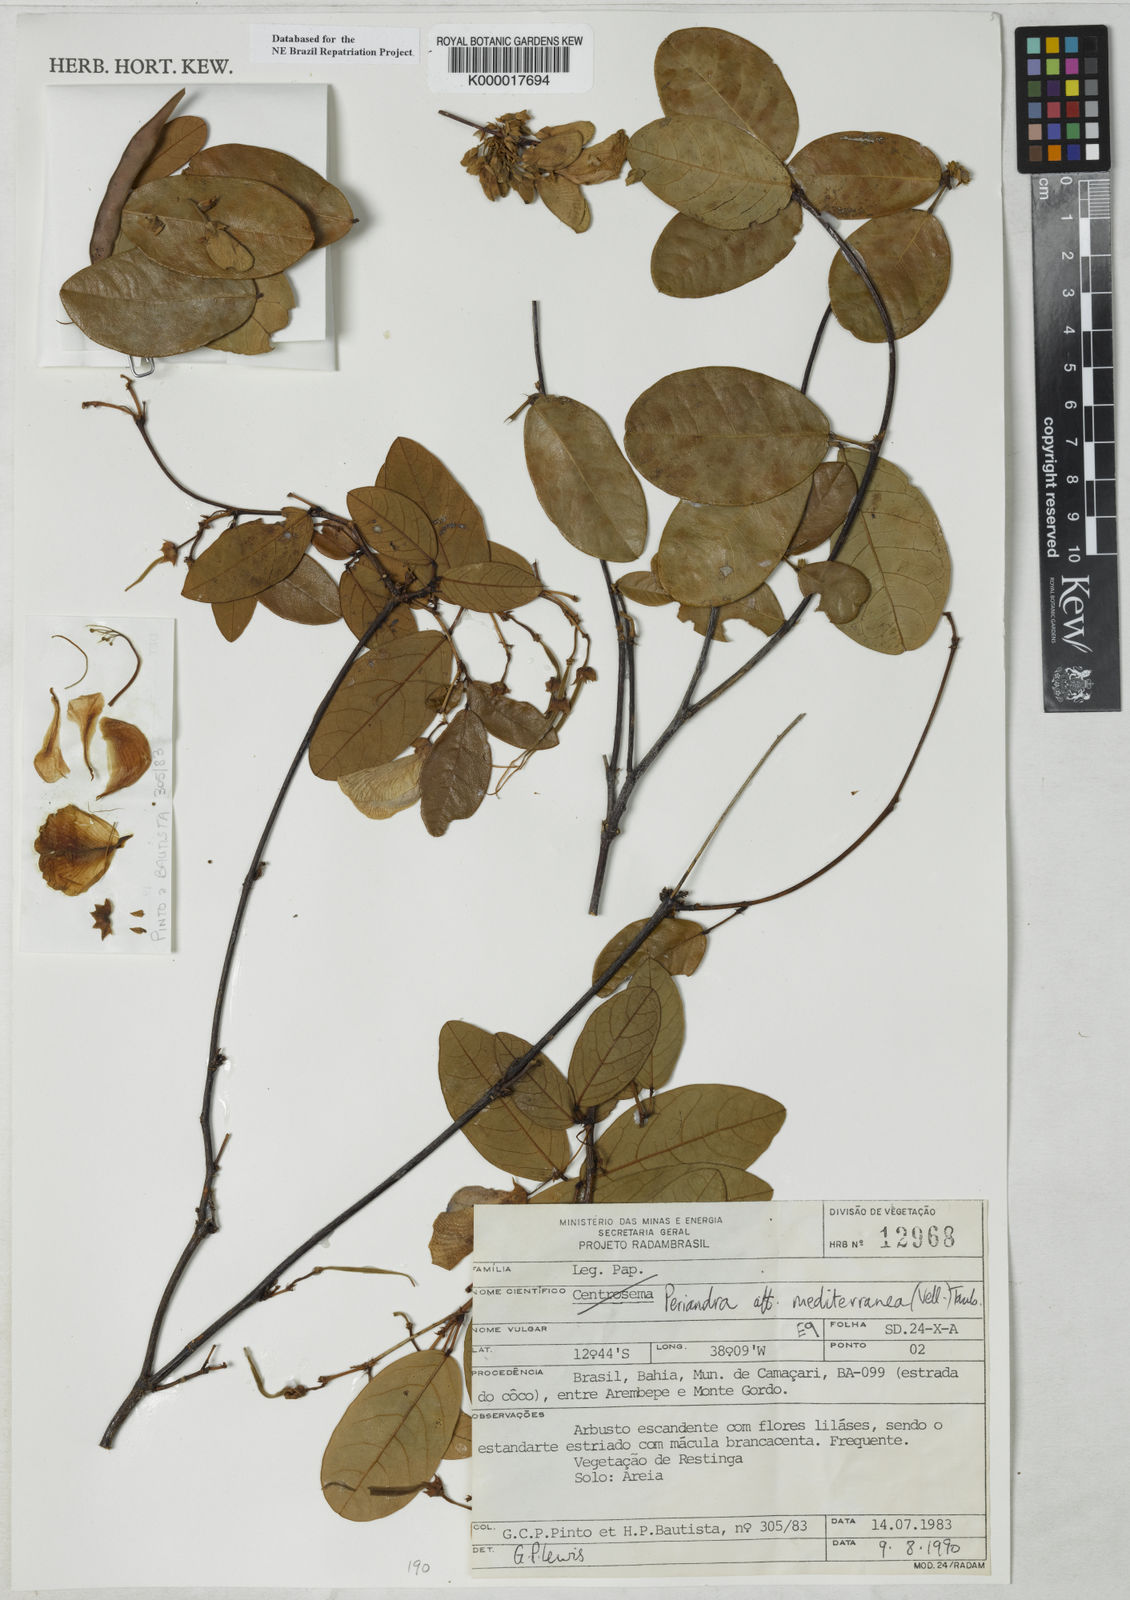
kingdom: Plantae
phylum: Tracheophyta
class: Magnoliopsida
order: Fabales
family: Fabaceae
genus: Periandra
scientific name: Periandra mediterranea
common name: Brazilian licorice
